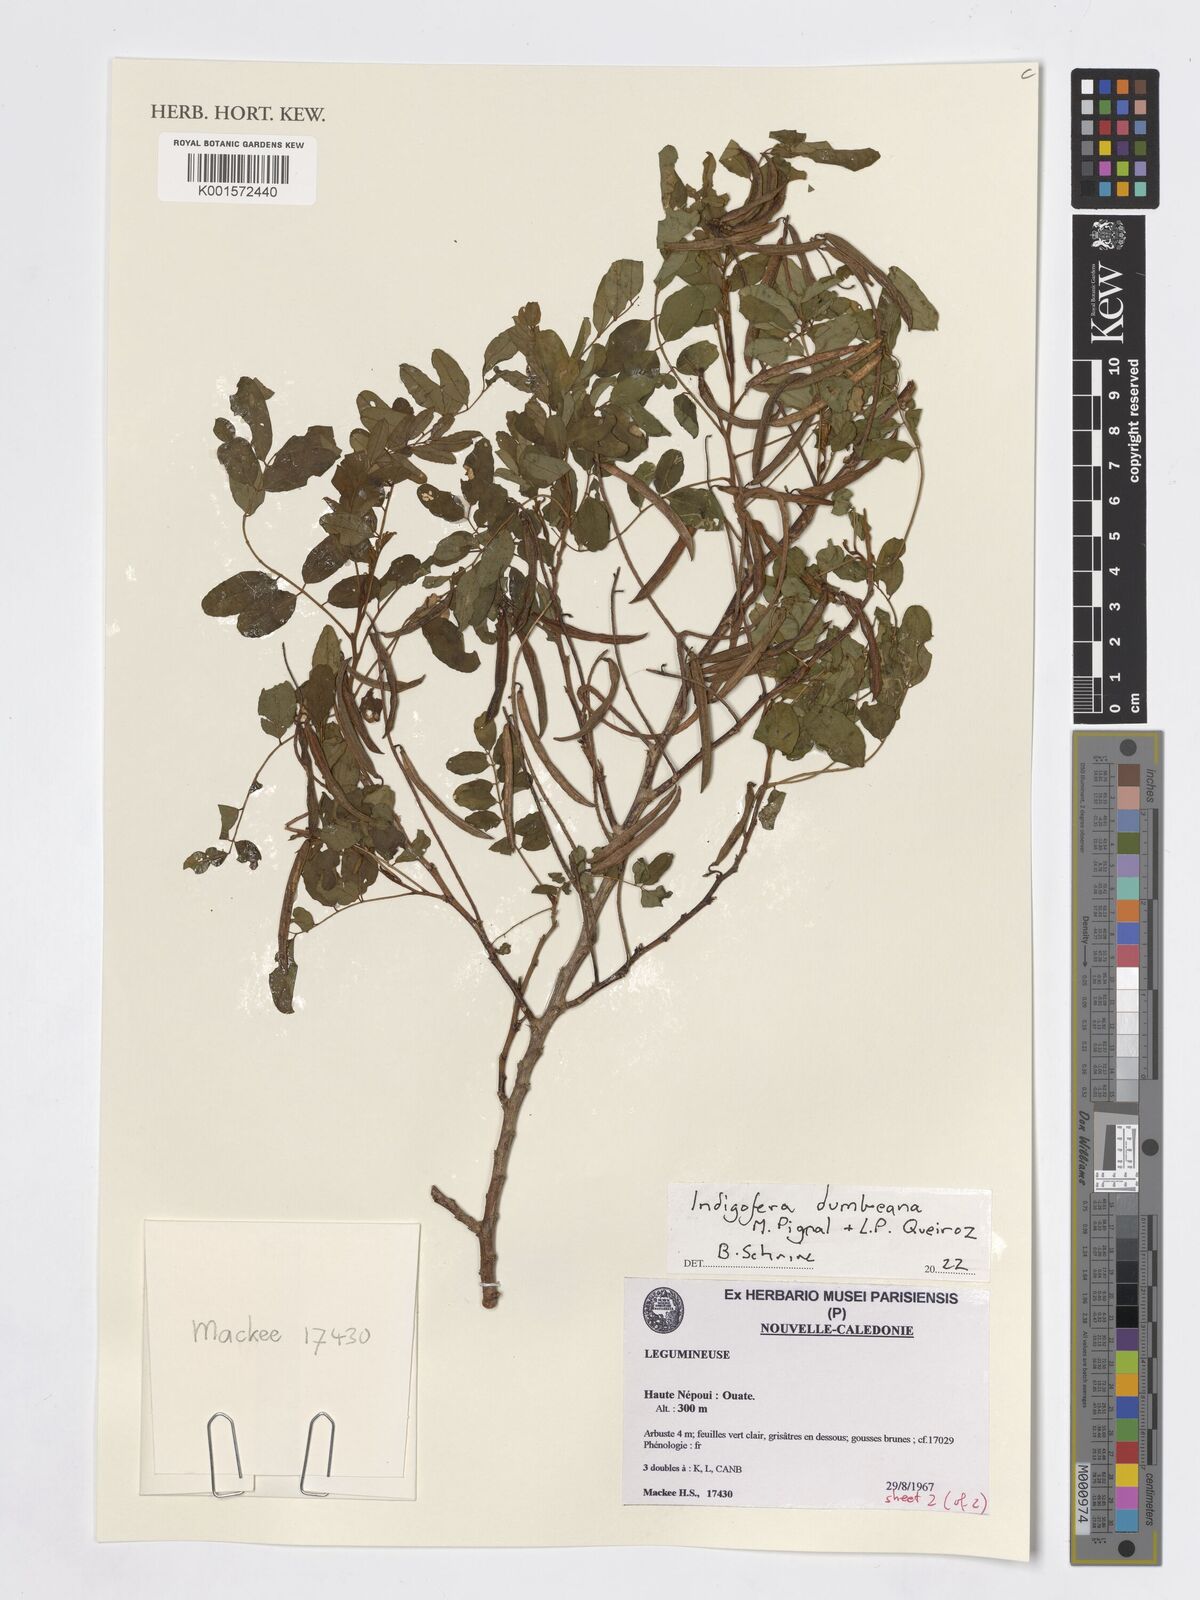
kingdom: Plantae
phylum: Tracheophyta
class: Magnoliopsida
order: Fabales
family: Fabaceae
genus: Indigofera
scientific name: Indigofera dumbeana
